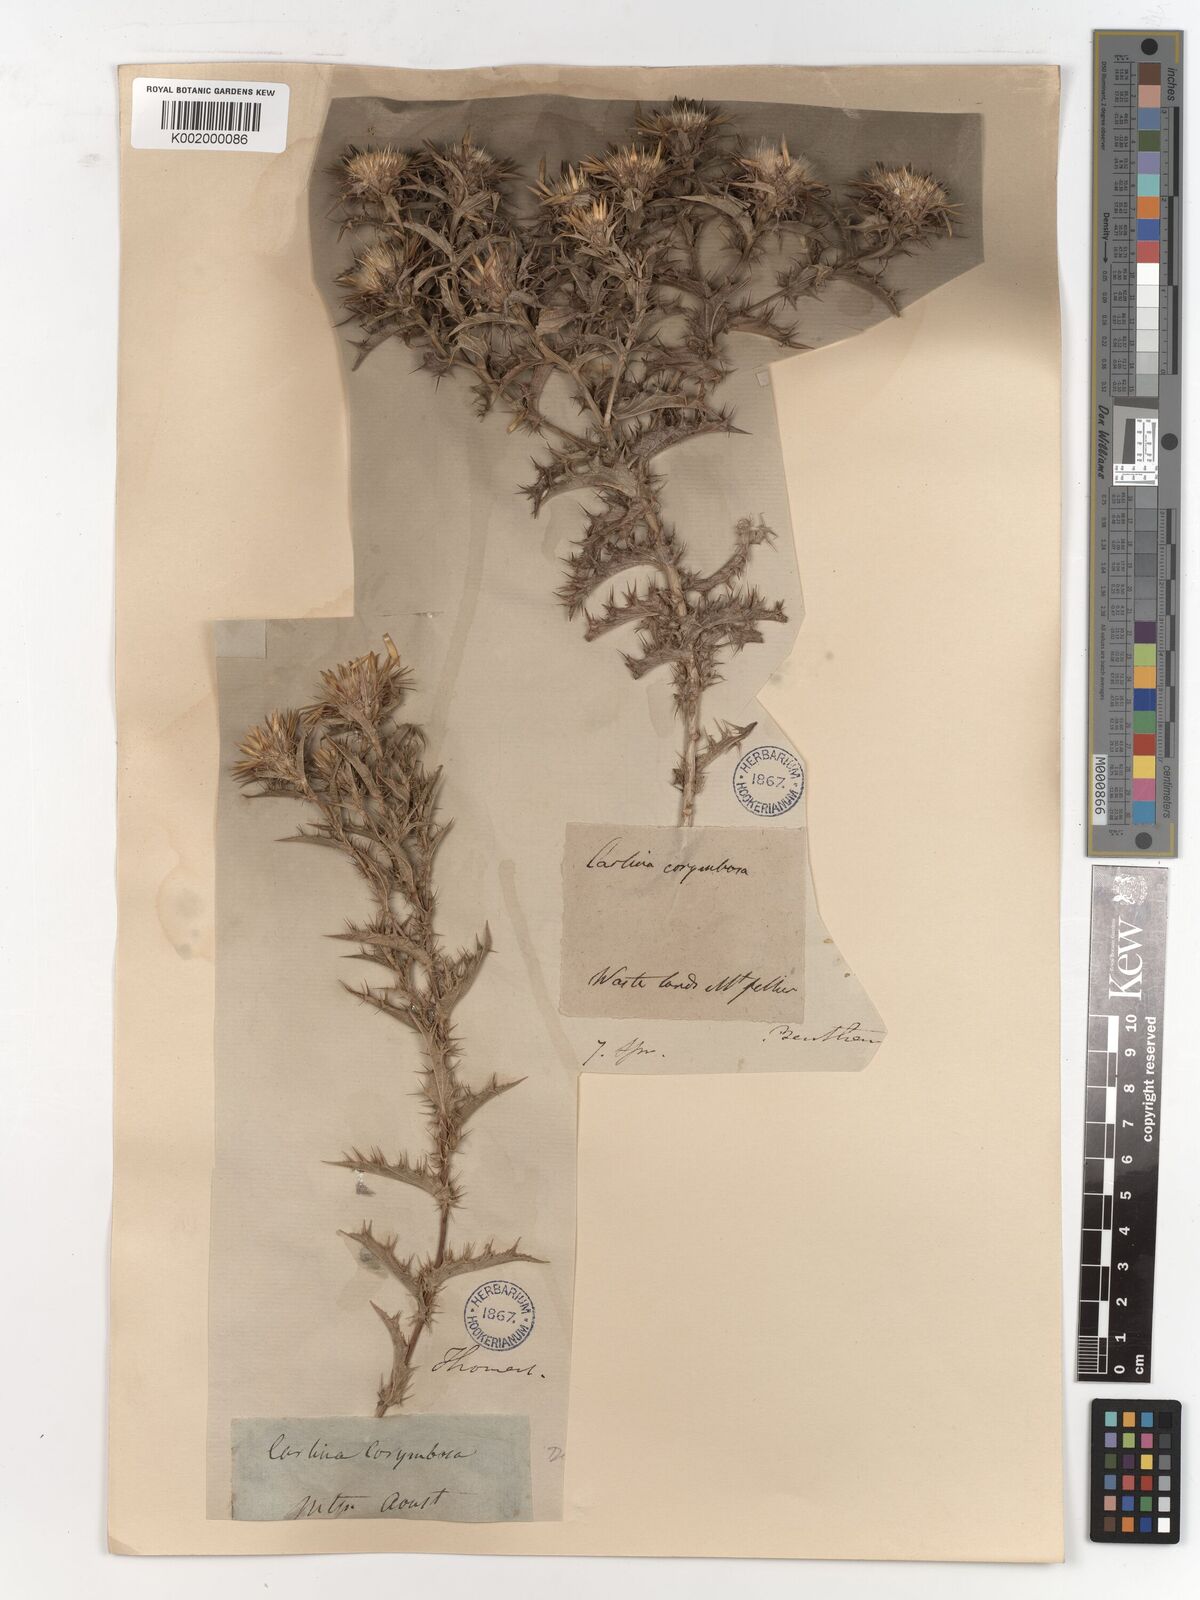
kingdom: Plantae
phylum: Tracheophyta
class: Magnoliopsida
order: Asterales
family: Asteraceae
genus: Carlina
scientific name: Carlina corymbosa
